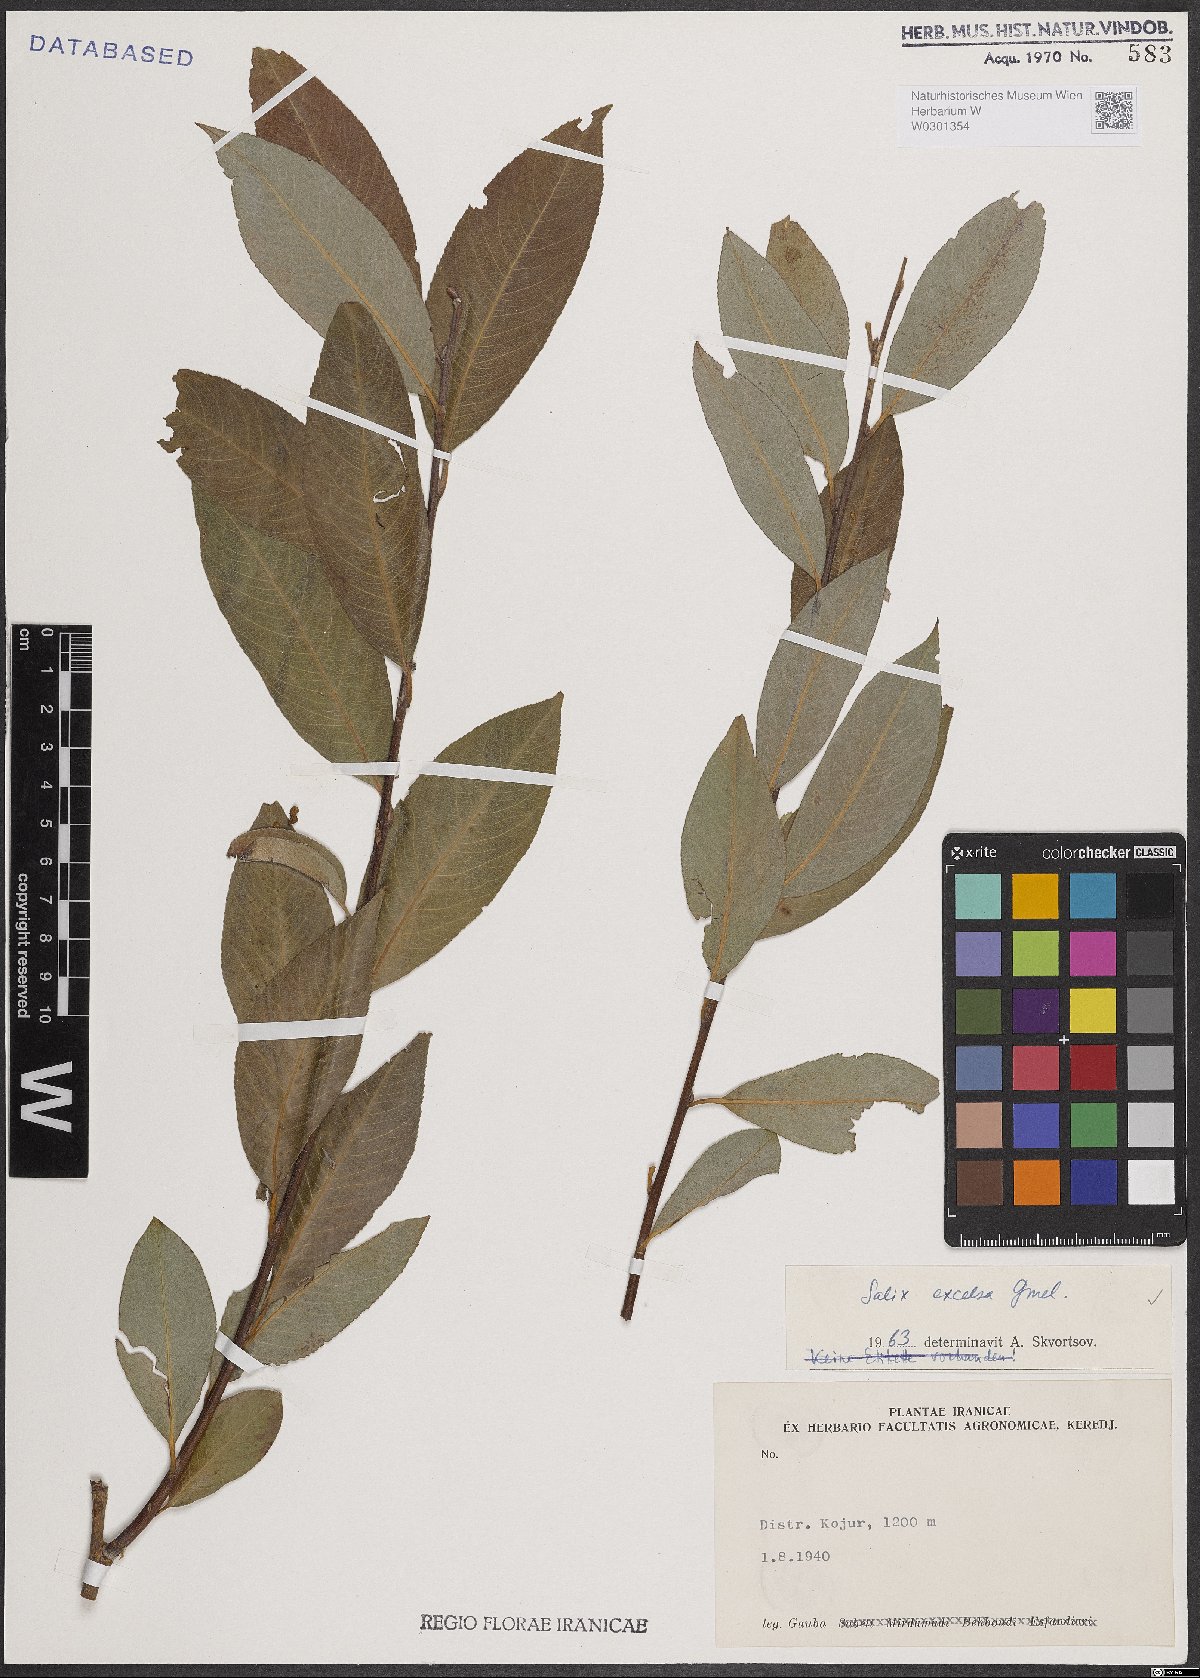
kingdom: Plantae
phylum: Tracheophyta
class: Magnoliopsida
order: Malpighiales
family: Salicaceae
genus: Salix
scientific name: Salix excelsa
